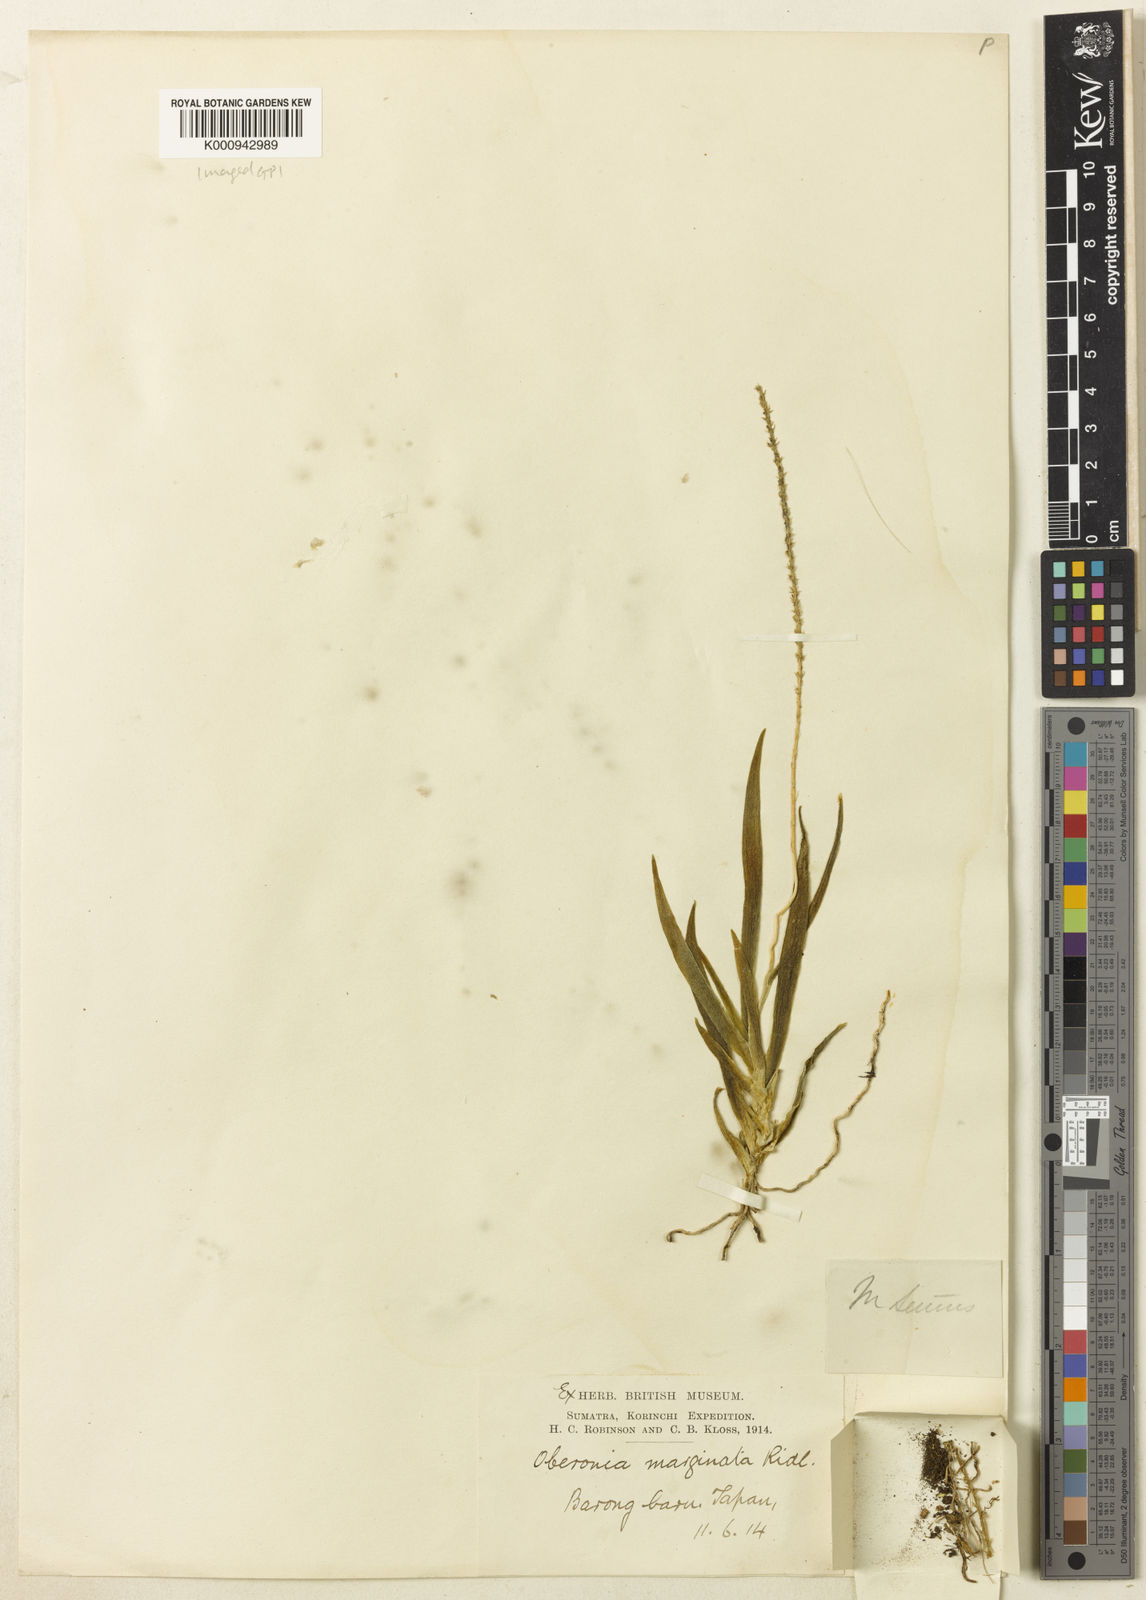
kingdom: Plantae
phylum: Tracheophyta
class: Liliopsida
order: Asparagales
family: Orchidaceae
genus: Oberonia
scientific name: Oberonia marginata
